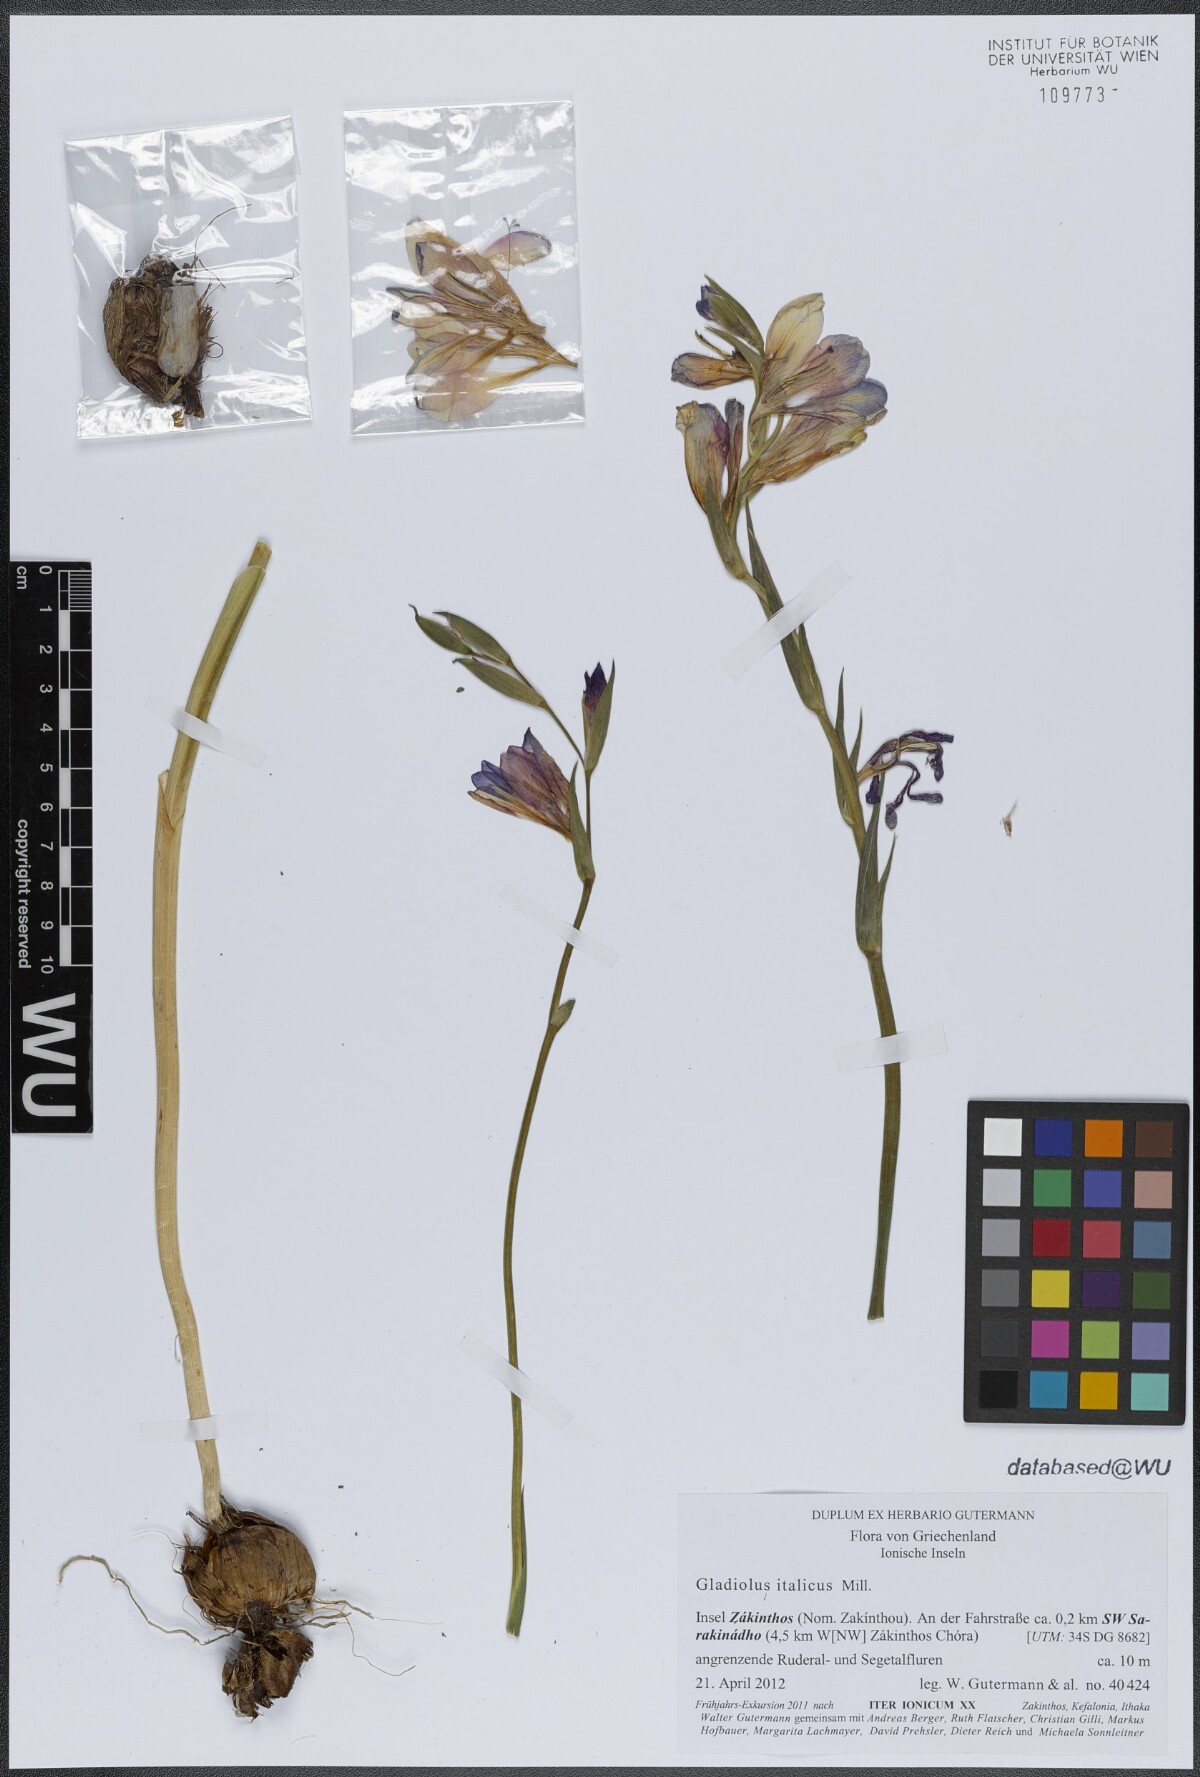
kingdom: Plantae
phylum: Tracheophyta
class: Liliopsida
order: Asparagales
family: Iridaceae
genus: Gladiolus
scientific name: Gladiolus italicus
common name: Field gladiolus
